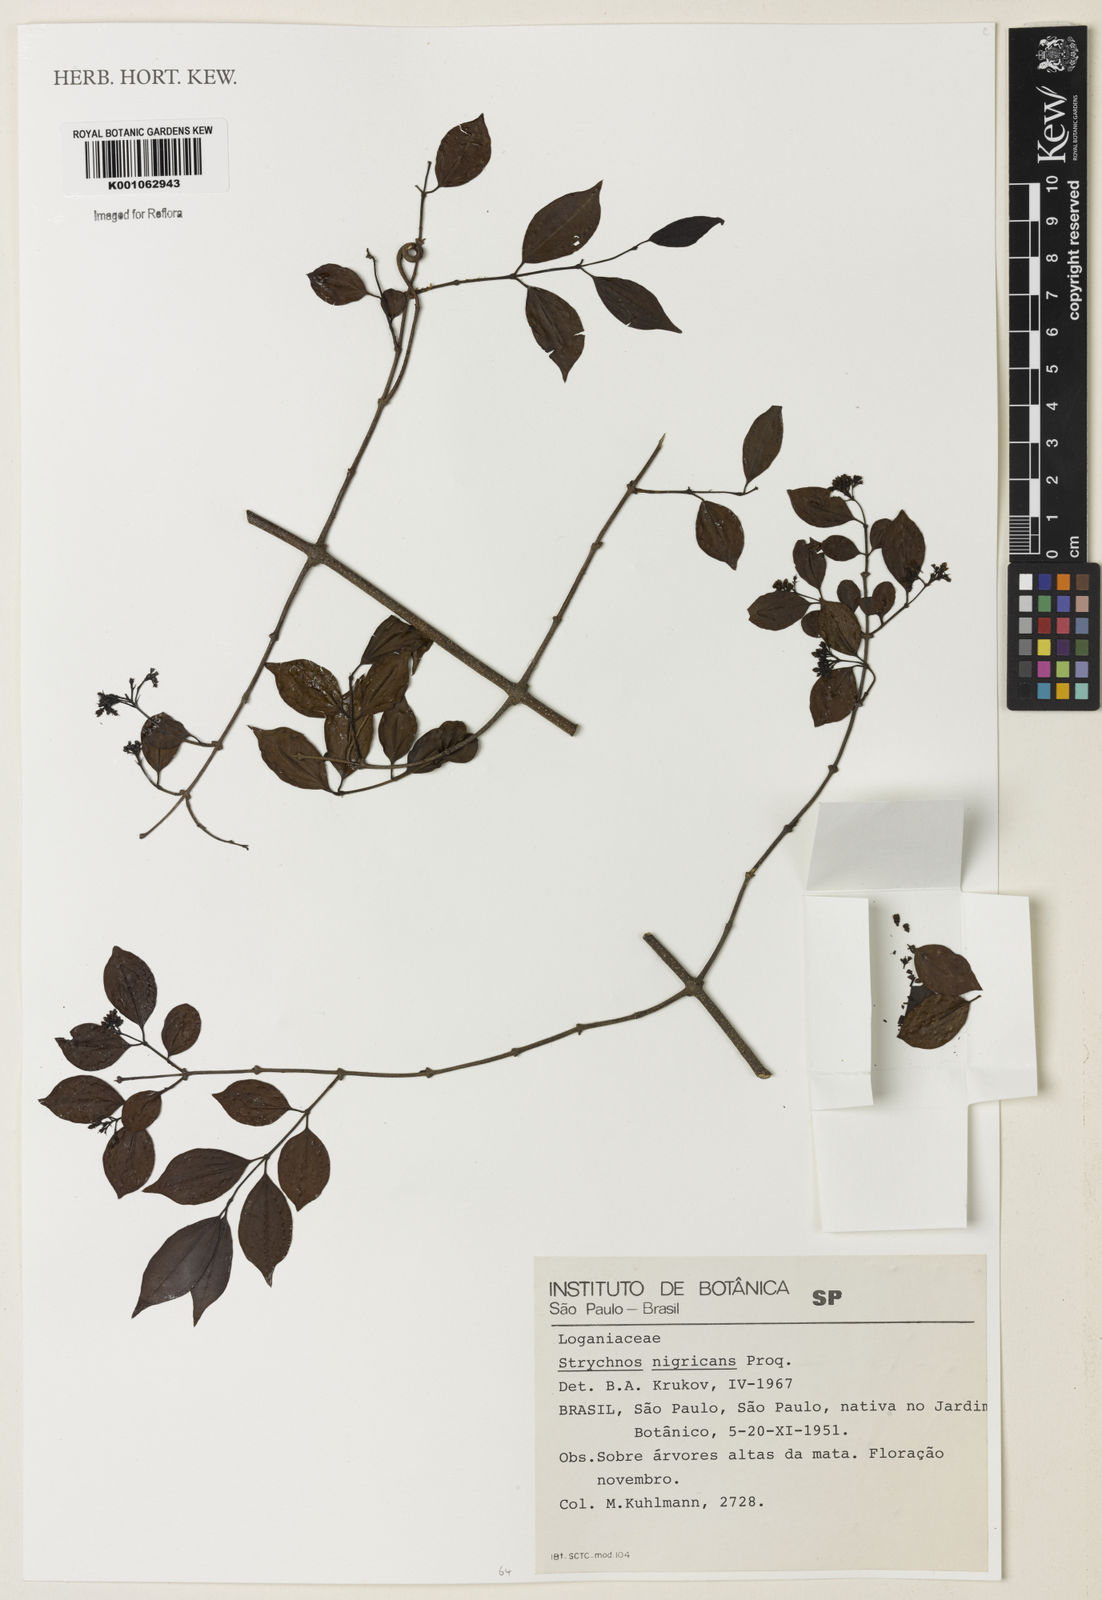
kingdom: Plantae
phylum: Tracheophyta
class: Magnoliopsida
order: Gentianales
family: Loganiaceae
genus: Strychnos
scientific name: Strychnos nigricans
